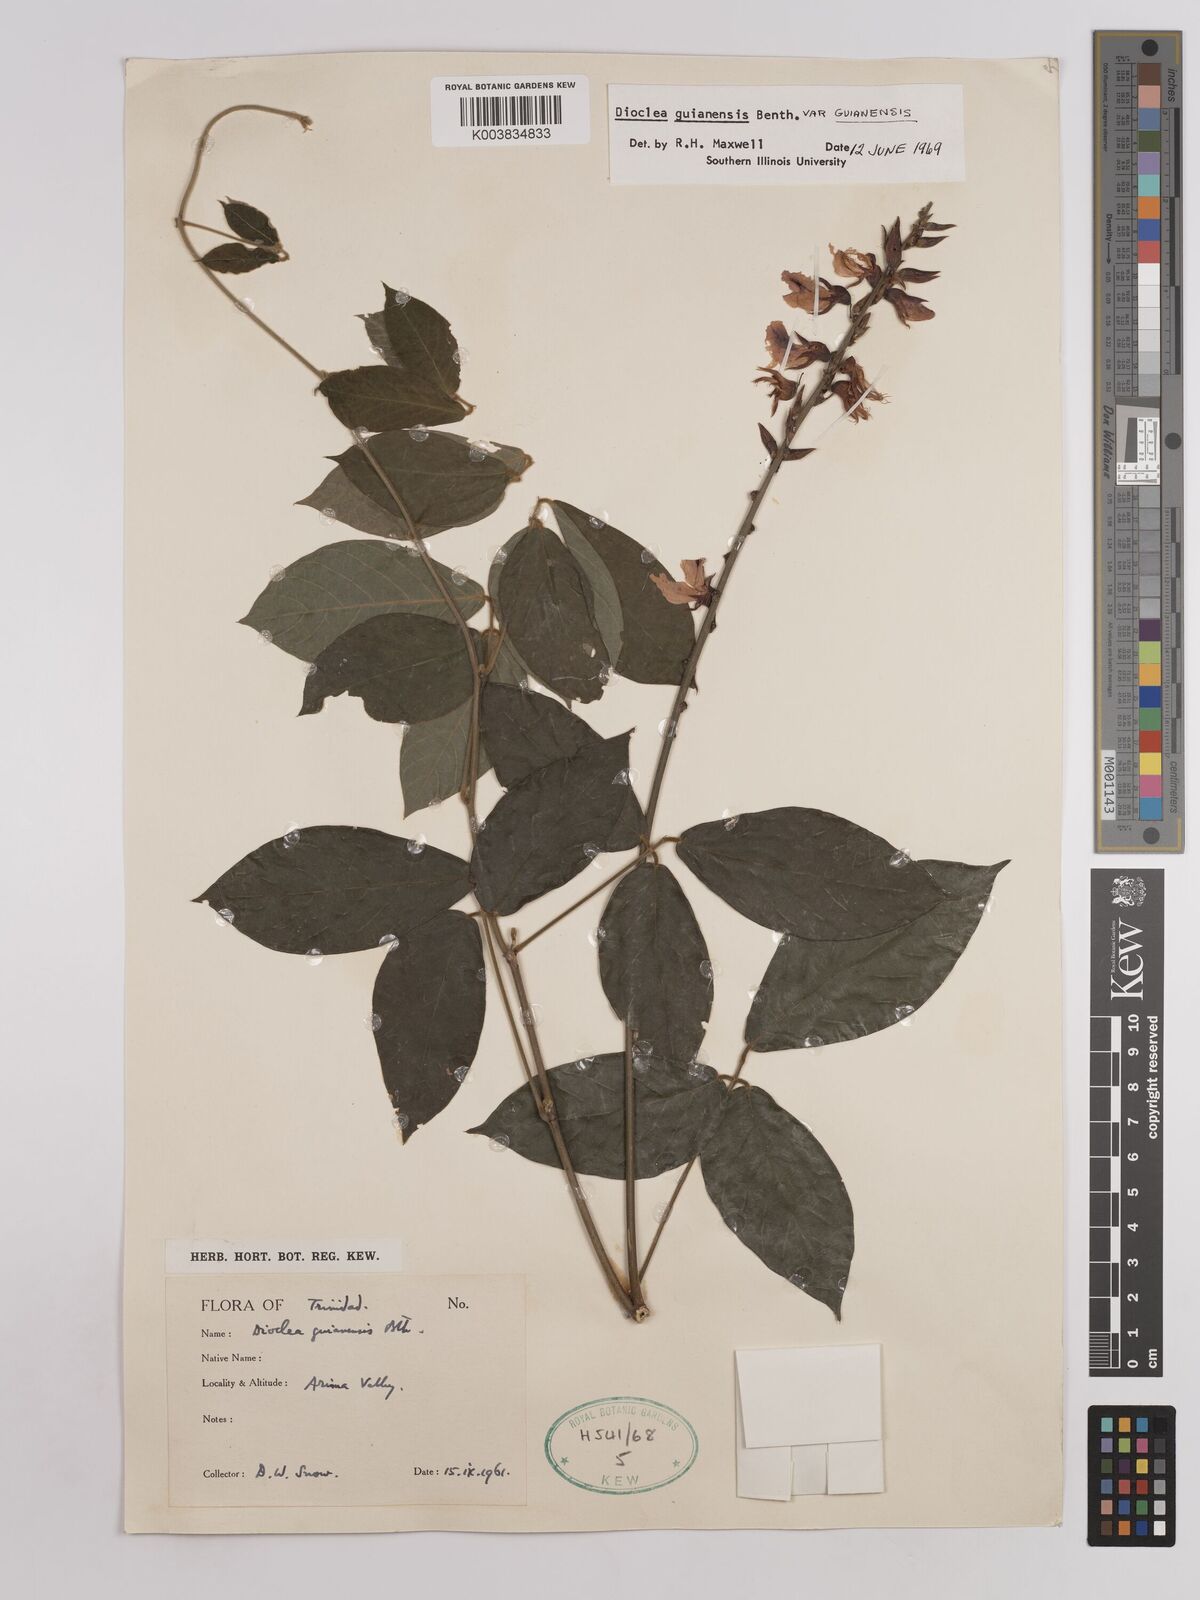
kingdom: Plantae
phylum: Tracheophyta
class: Magnoliopsida
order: Fabales
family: Fabaceae
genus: Dioclea
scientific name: Dioclea guianensis
